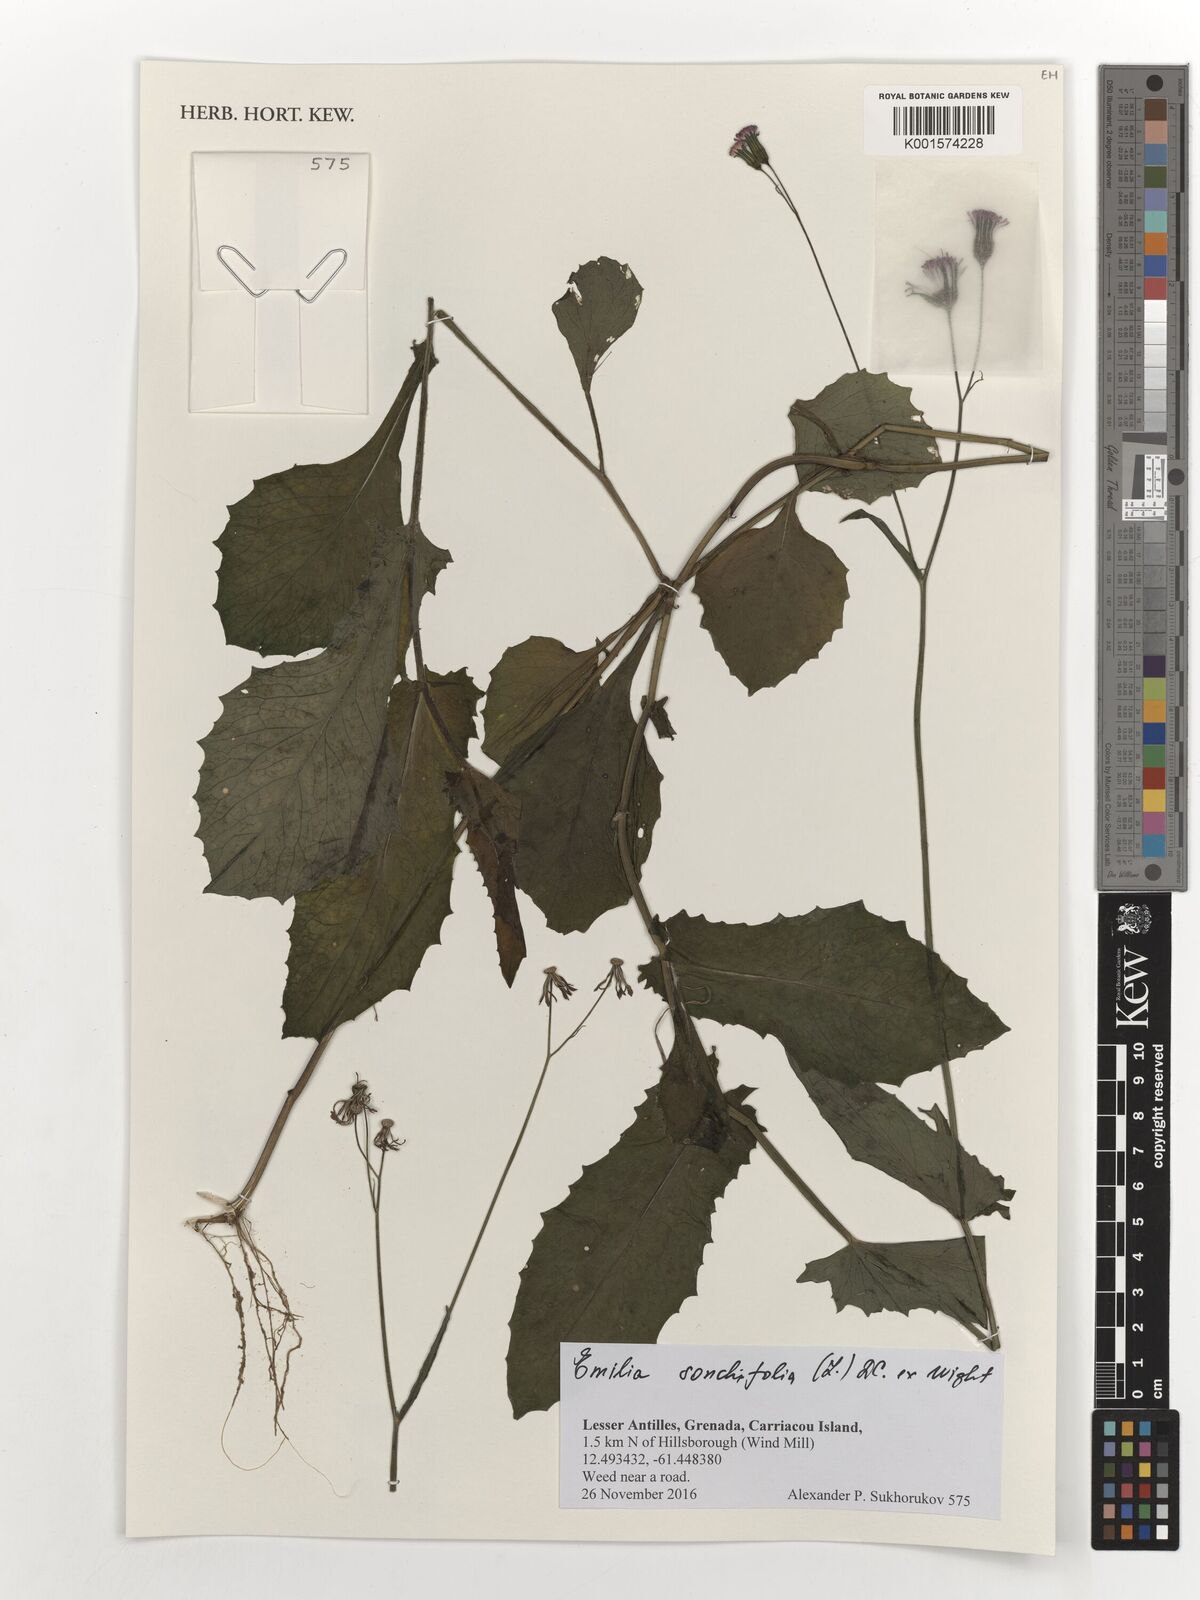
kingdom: Plantae
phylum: Tracheophyta
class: Magnoliopsida
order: Asterales
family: Asteraceae
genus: Emilia
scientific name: Emilia sonchifolia
